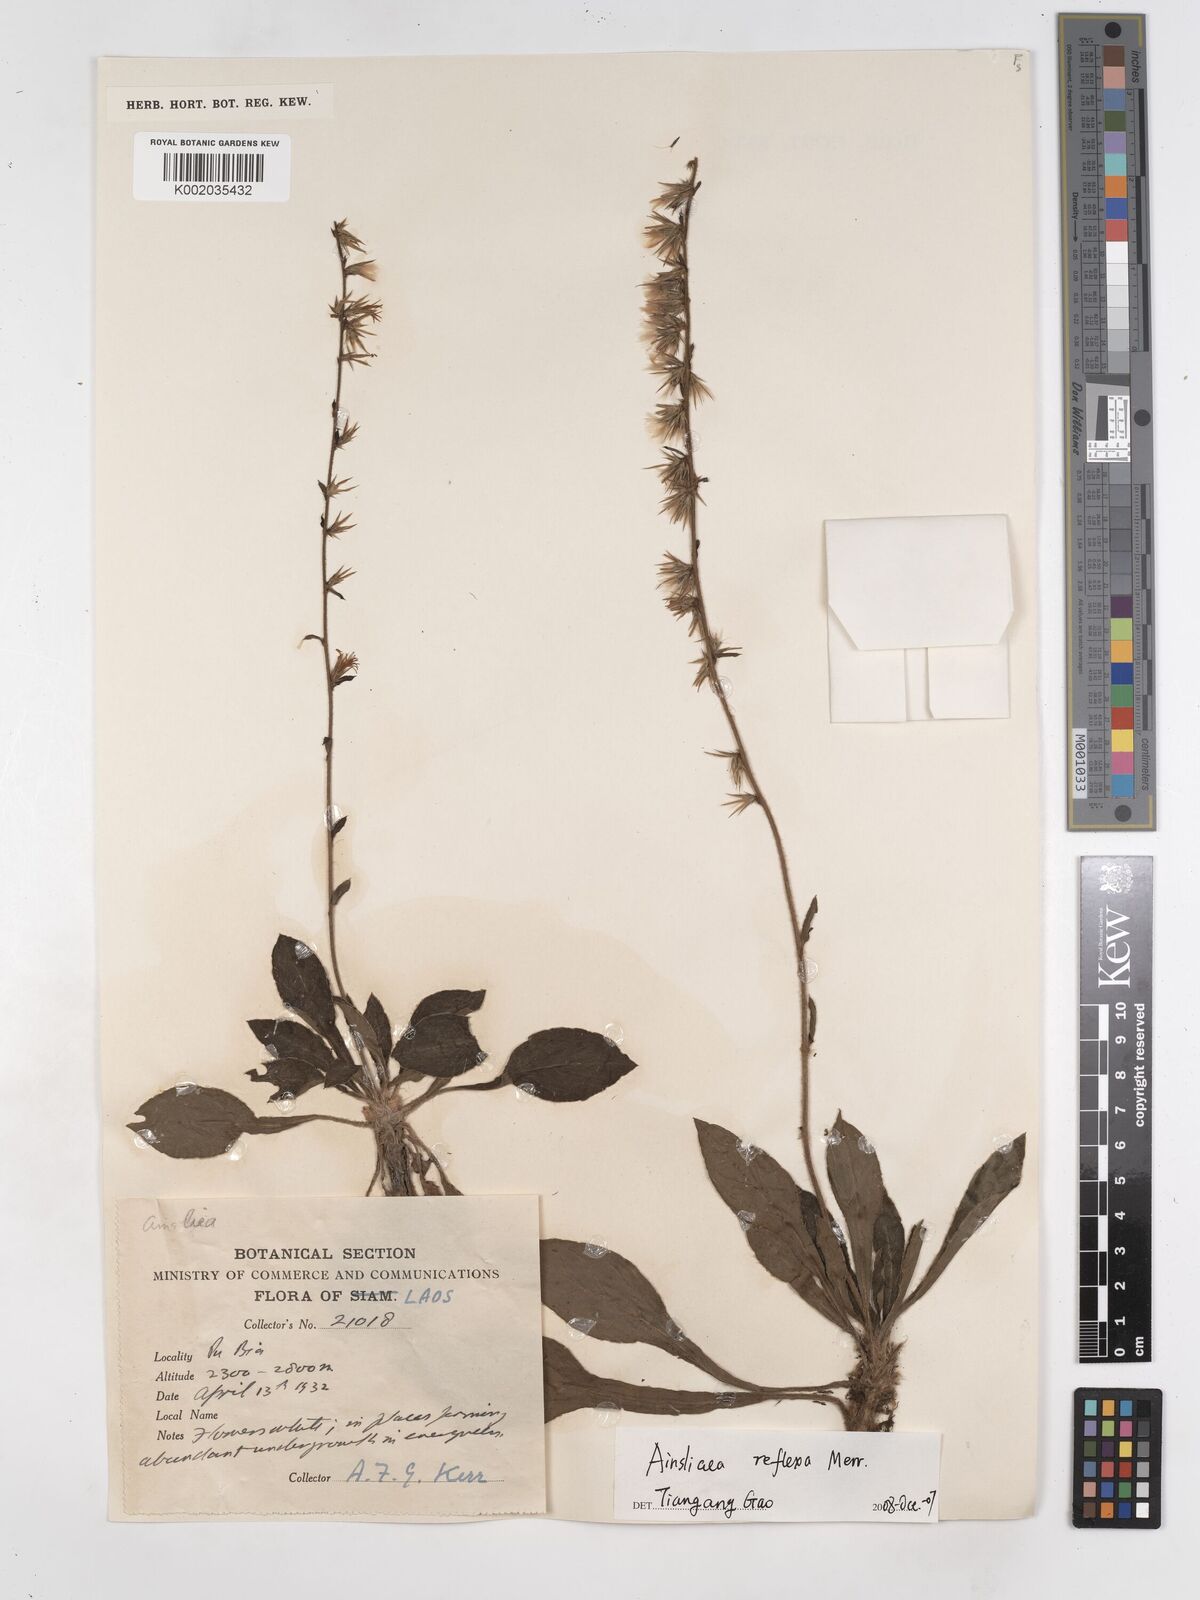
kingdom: Plantae
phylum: Tracheophyta
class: Magnoliopsida
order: Asterales
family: Asteraceae
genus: Ainsliaea
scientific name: Ainsliaea reflexa
